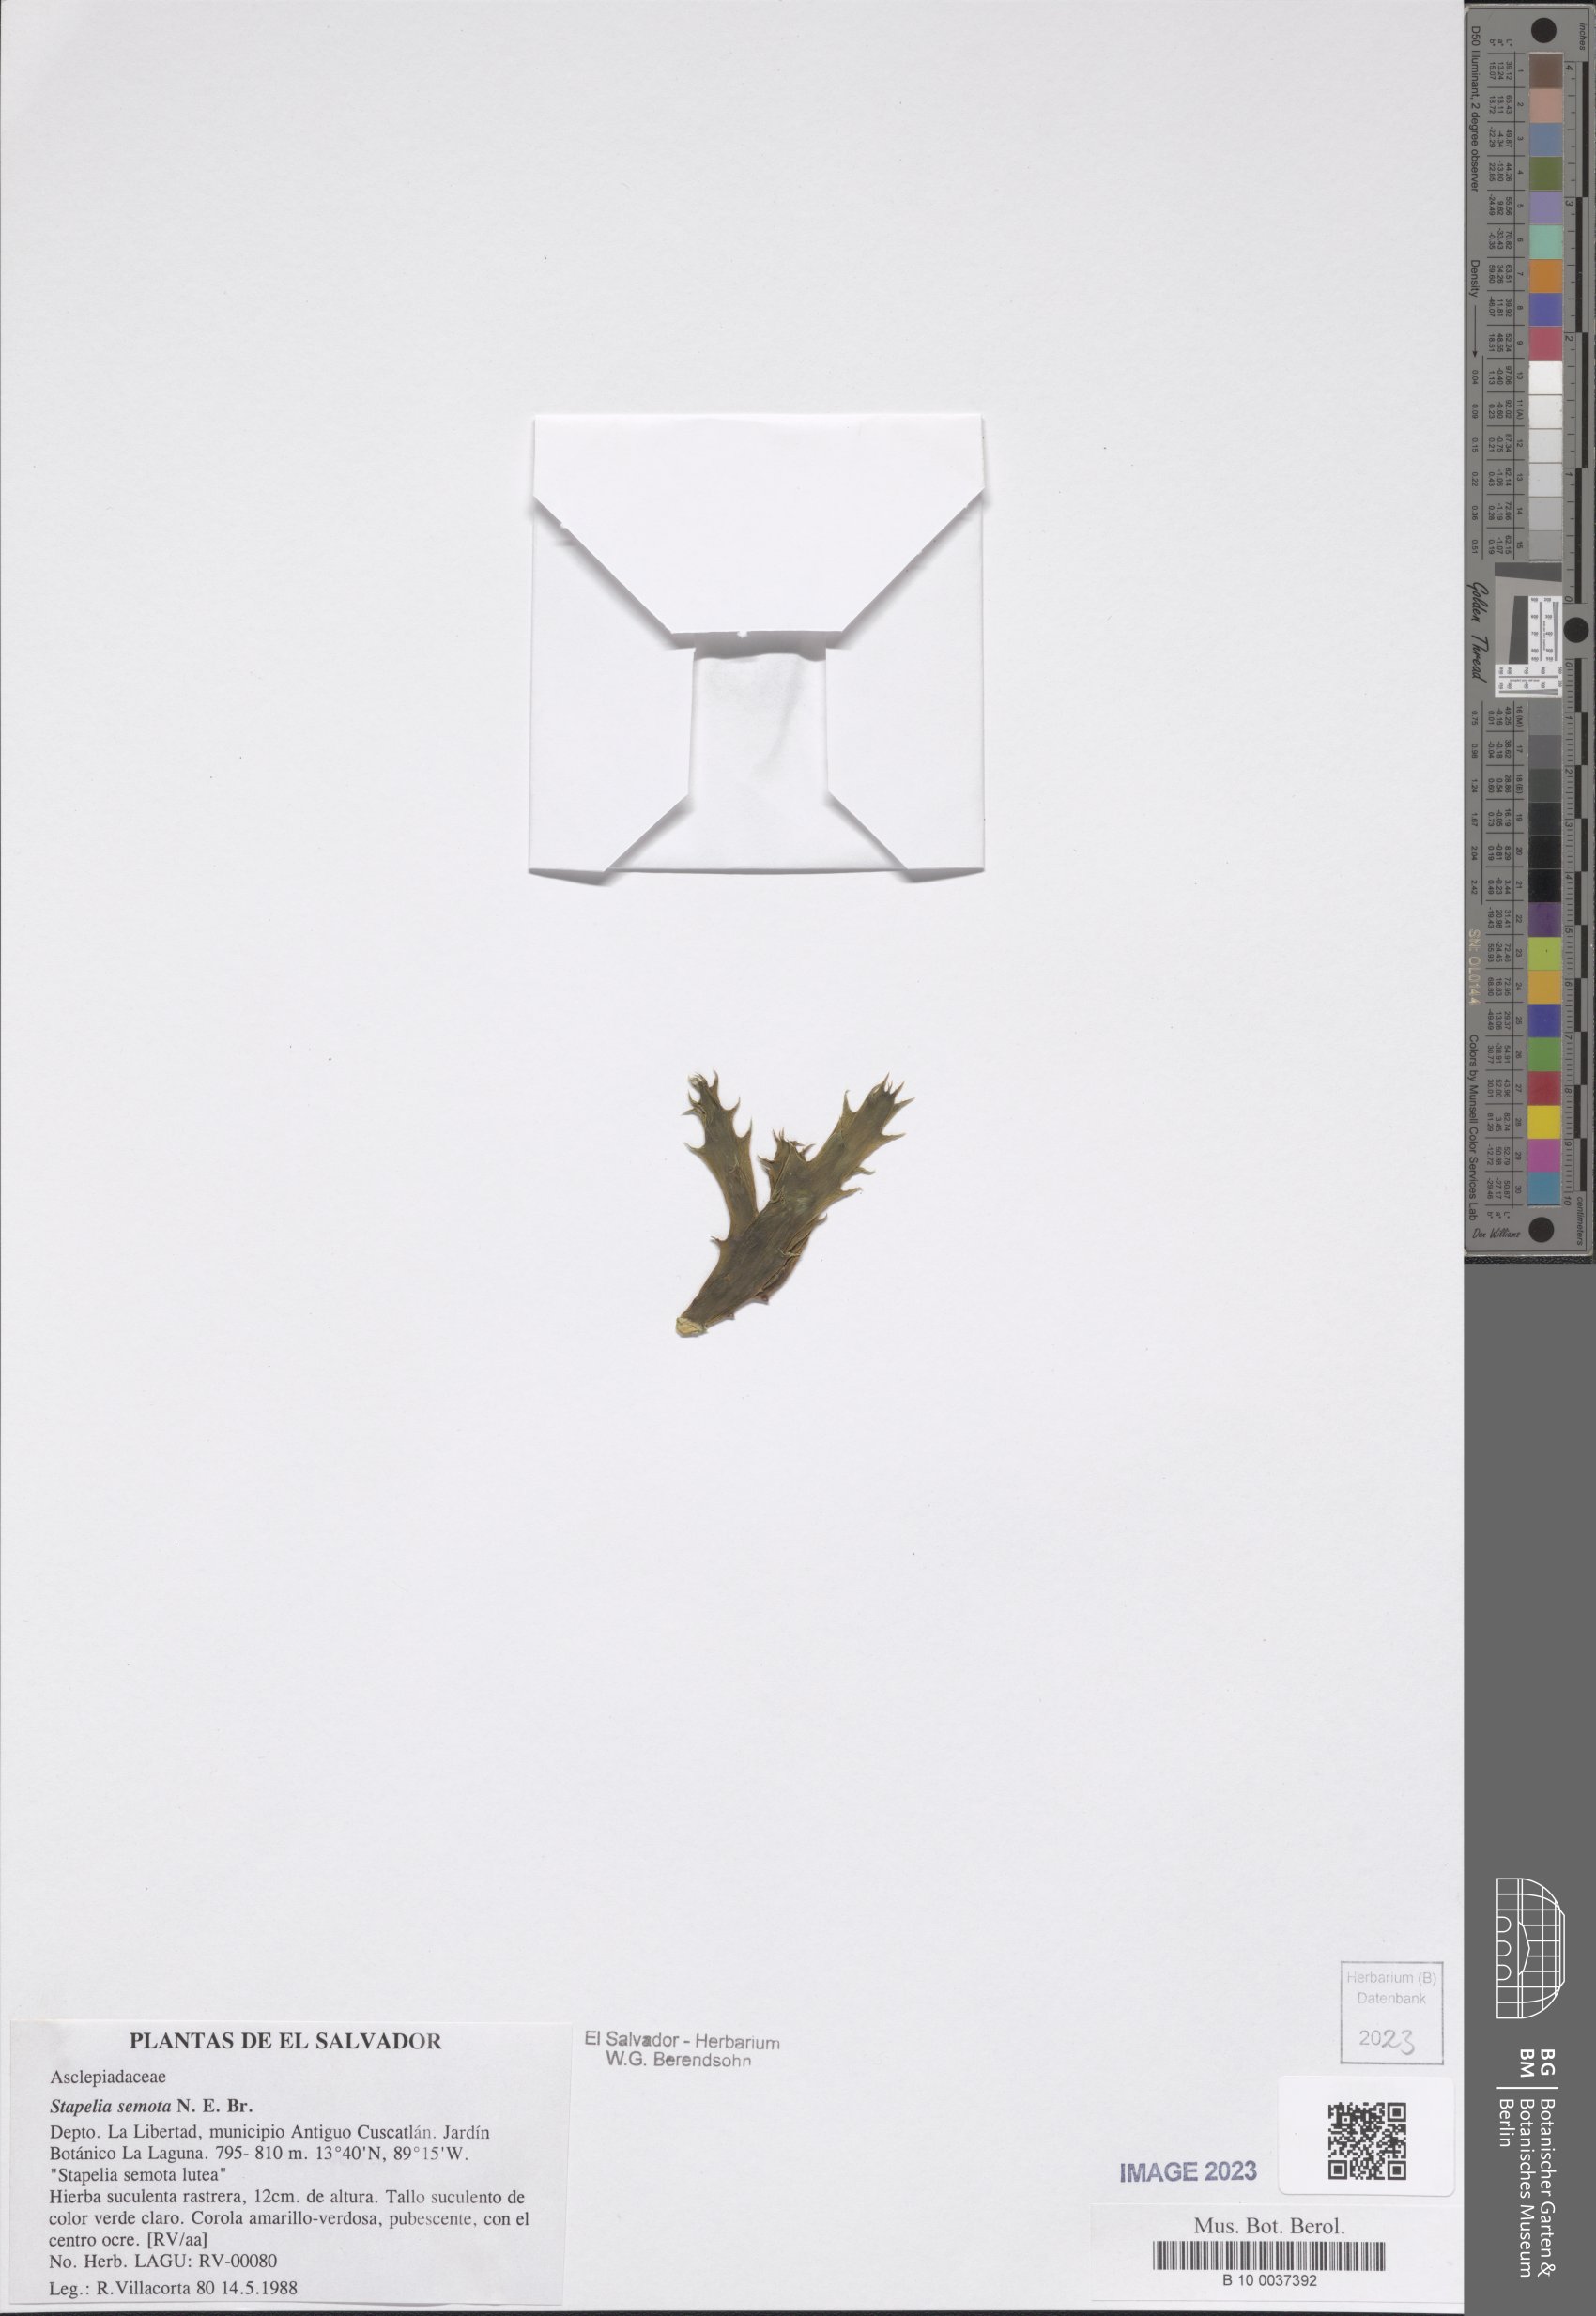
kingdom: Plantae
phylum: Tracheophyta
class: Magnoliopsida
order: Gentianales
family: Apocynaceae
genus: Ceropegia
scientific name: Ceropegia semota
